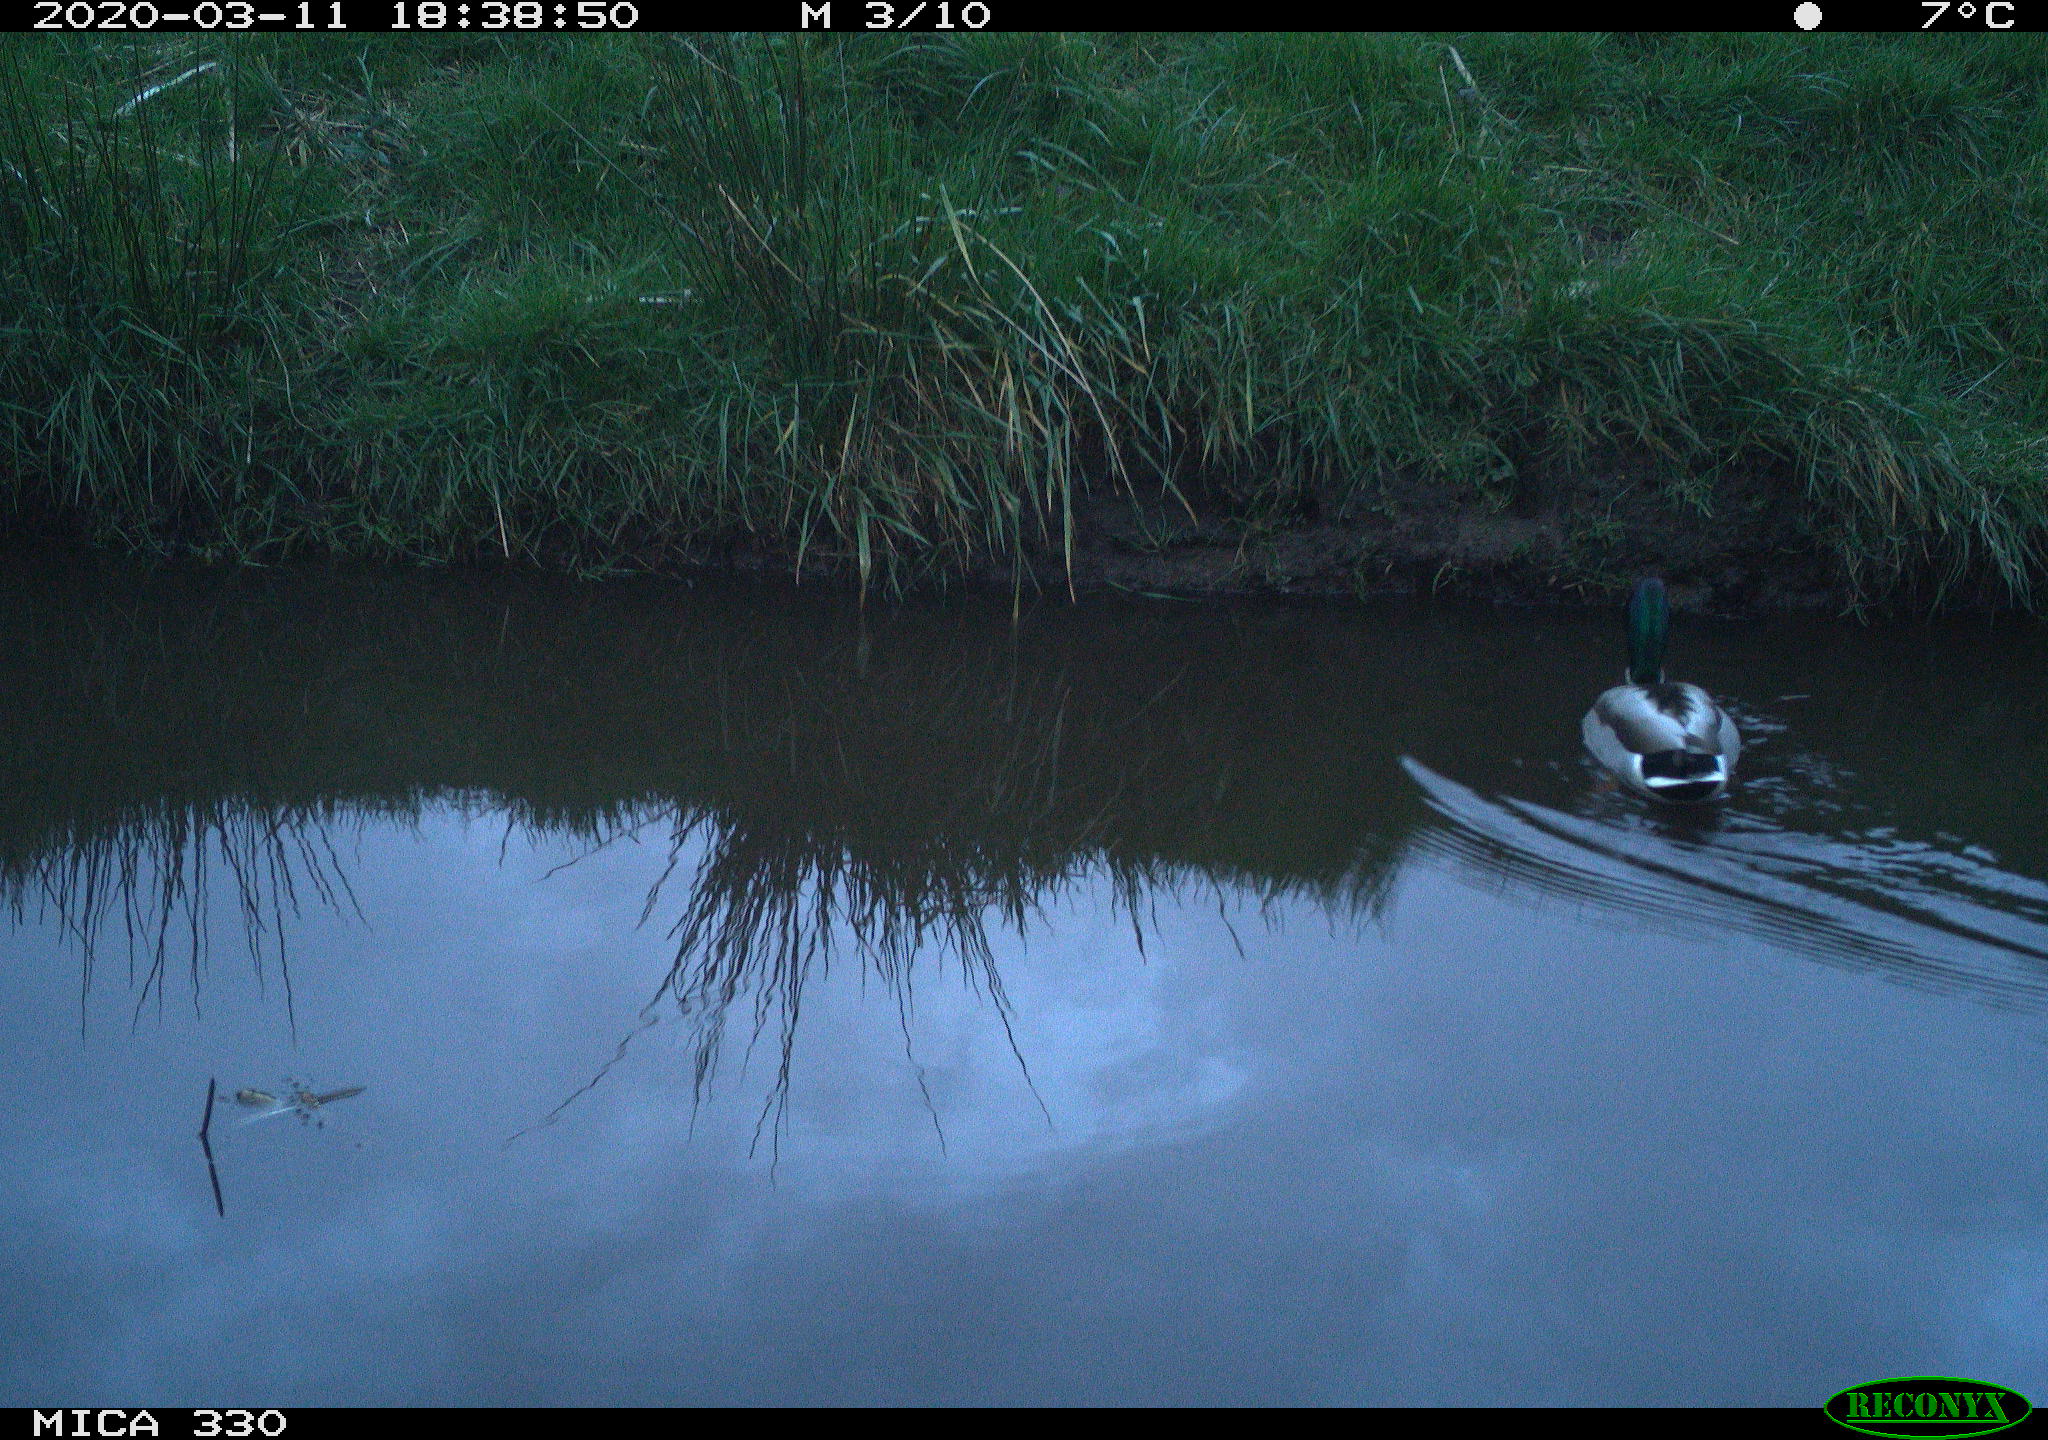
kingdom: Animalia
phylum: Chordata
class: Aves
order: Anseriformes
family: Anatidae
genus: Anas
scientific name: Anas platyrhynchos
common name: Mallard
